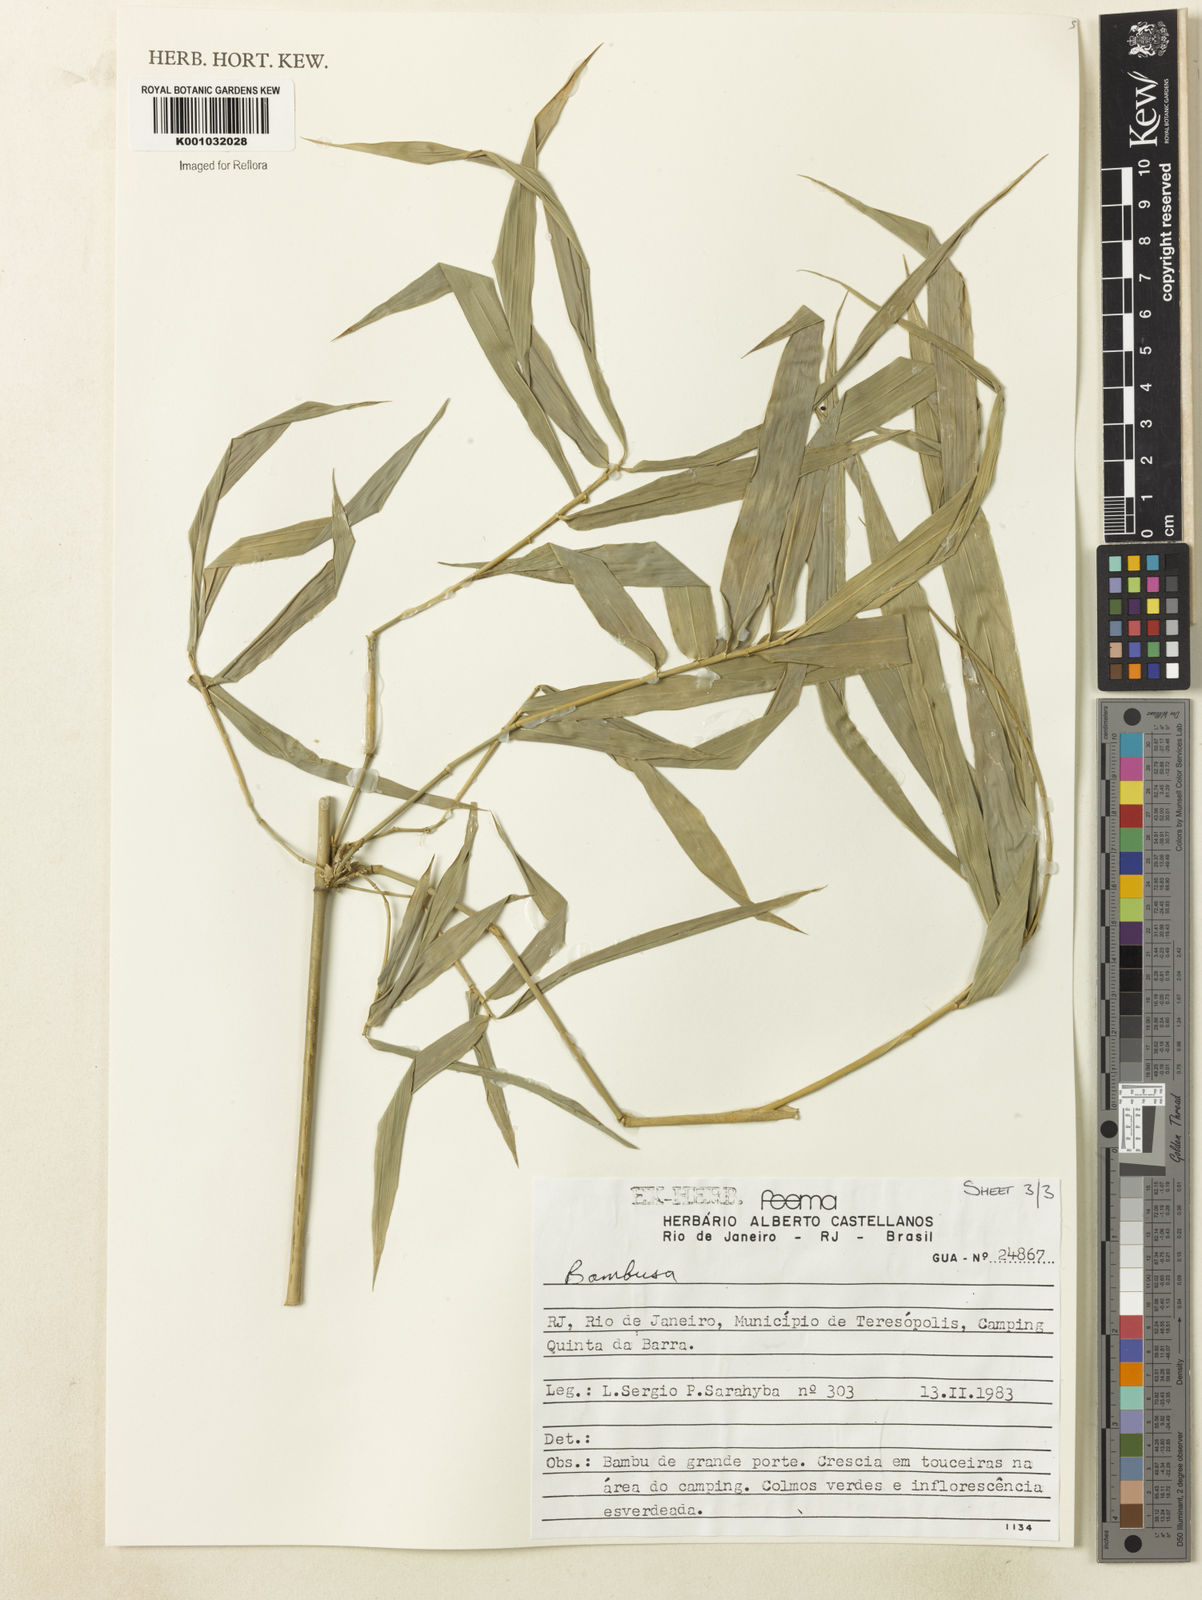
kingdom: Plantae
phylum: Tracheophyta
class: Liliopsida
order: Poales
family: Poaceae
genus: Bambusa
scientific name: Bambusa tuldoides
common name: Verdant bamboo
